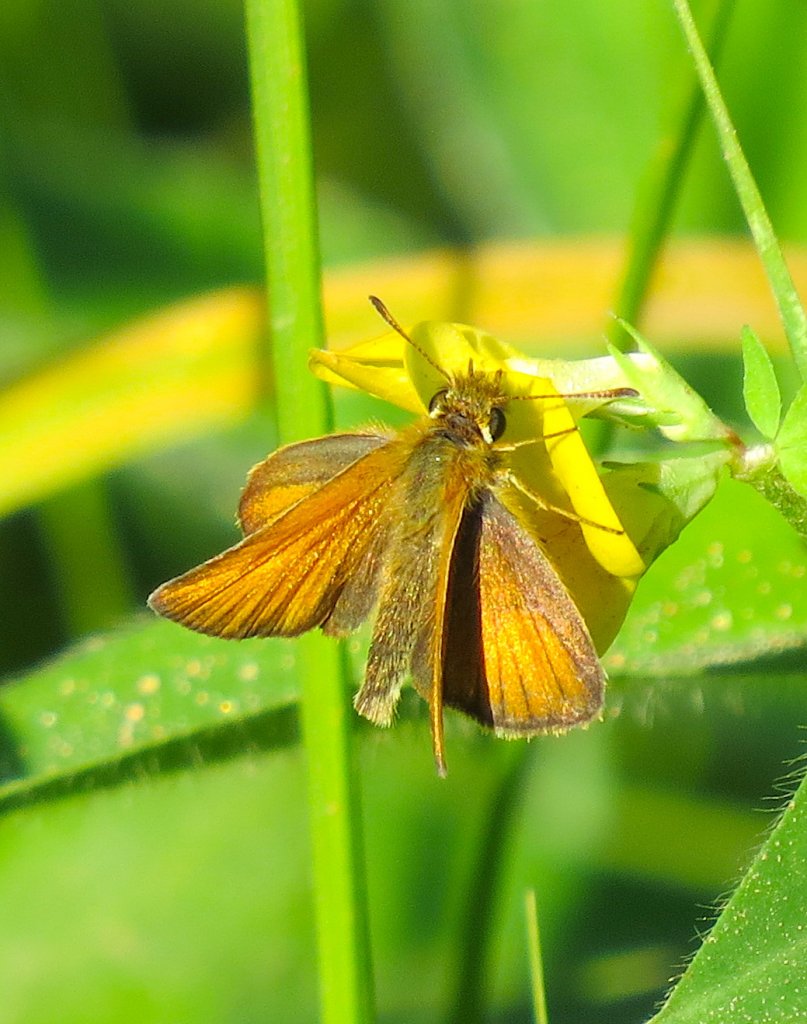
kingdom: Animalia
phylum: Arthropoda
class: Insecta
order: Lepidoptera
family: Hesperiidae
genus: Thymelicus
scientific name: Thymelicus lineola
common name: European Skipper
